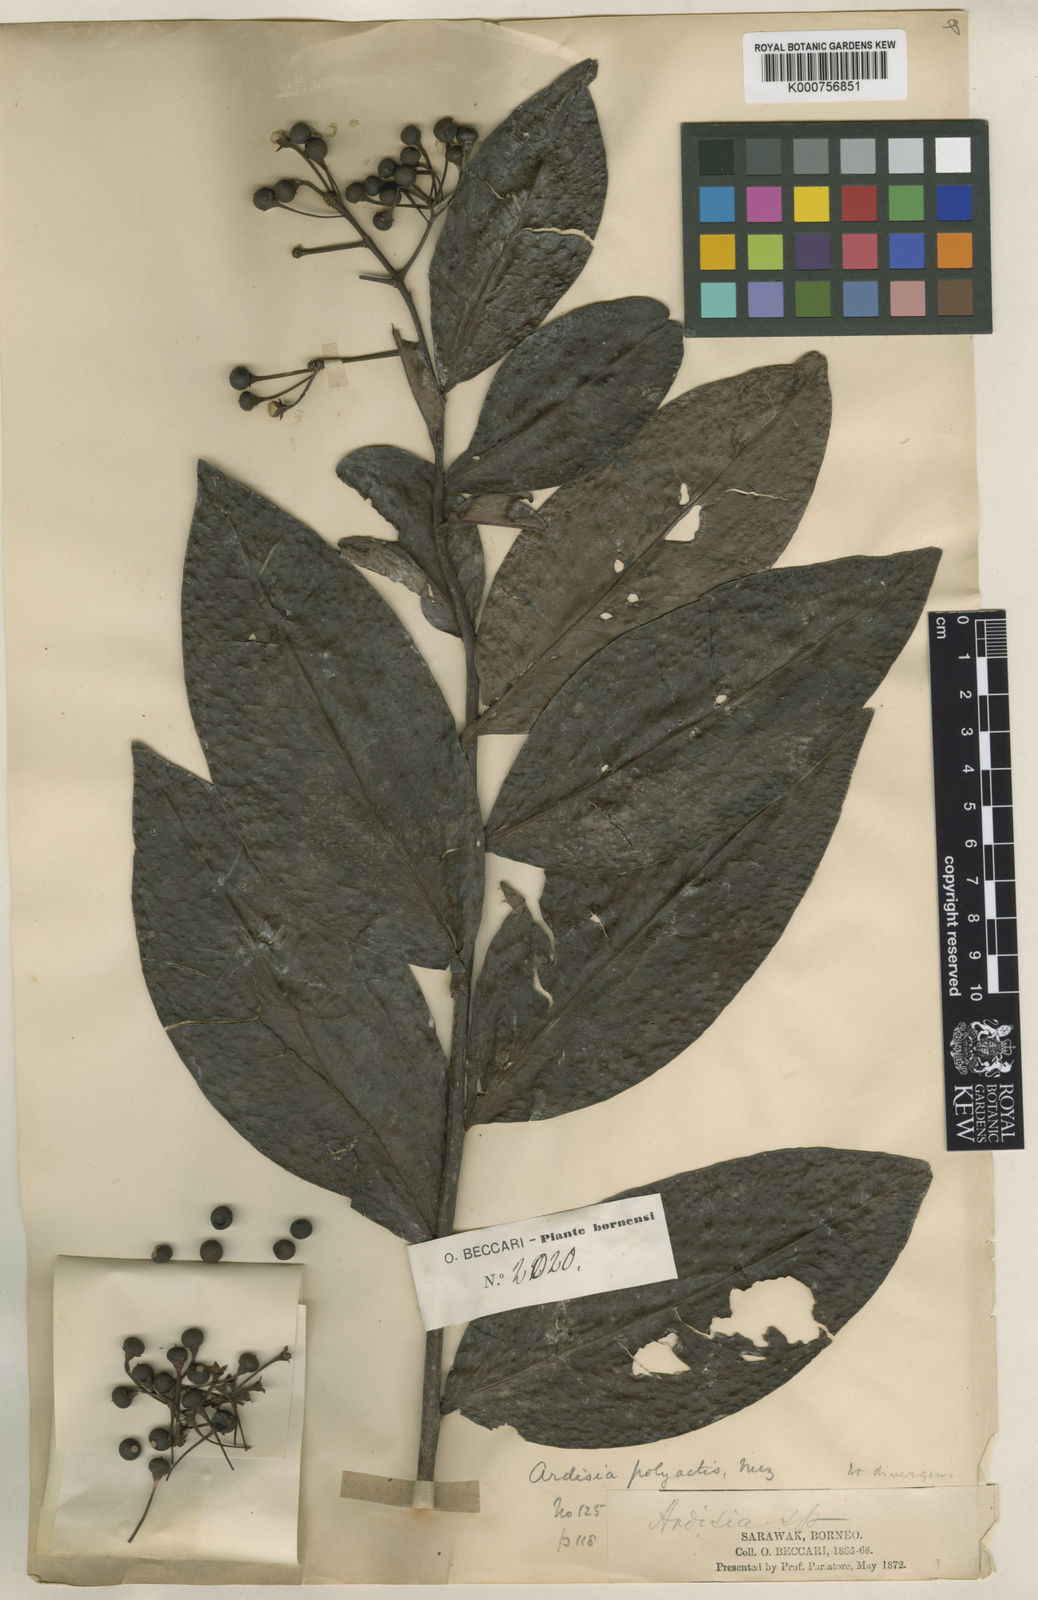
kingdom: Plantae
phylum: Tracheophyta
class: Magnoliopsida
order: Ericales
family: Primulaceae
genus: Ardisia
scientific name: Ardisia polyactis
